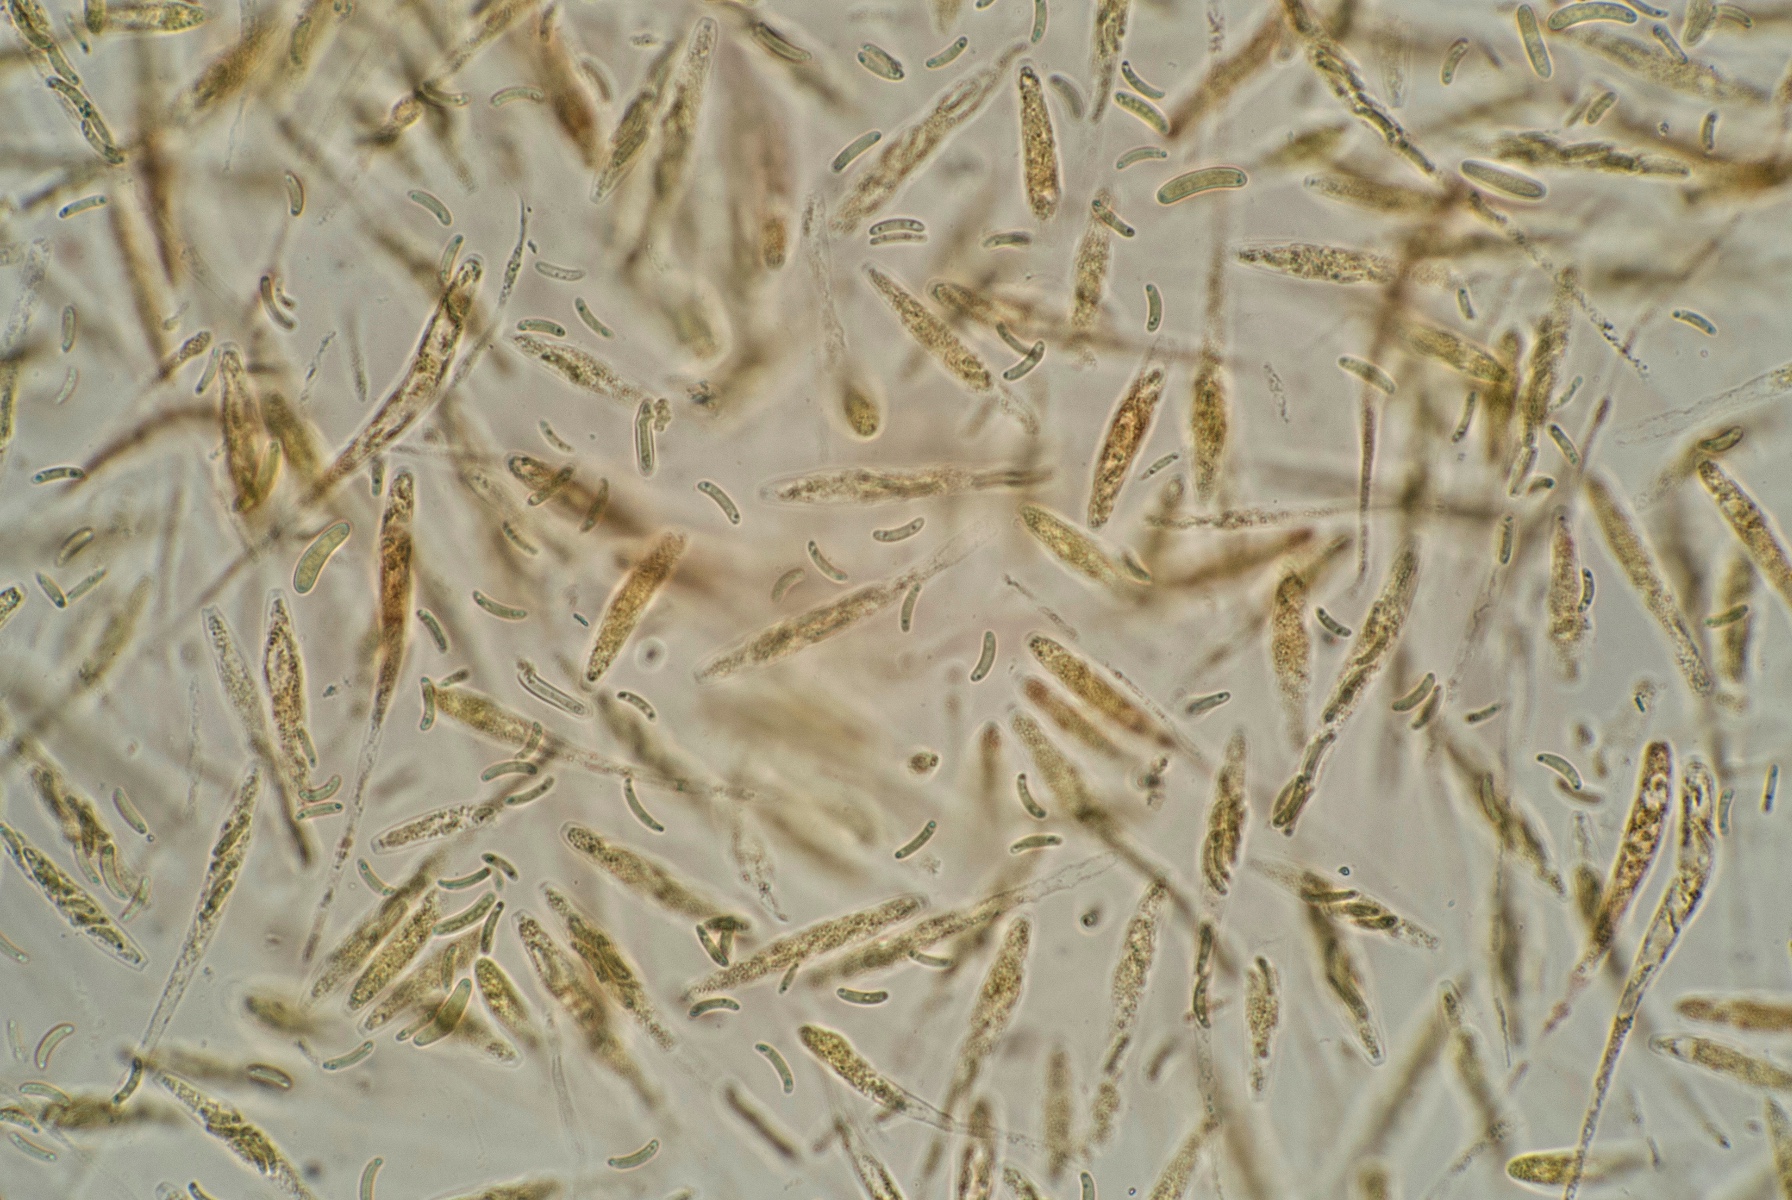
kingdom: Fungi
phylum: Ascomycota
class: Sordariomycetes
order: Xylariales
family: Diatrypaceae
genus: Eutypa
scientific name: Eutypa lata
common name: almindelig kulskorpe
